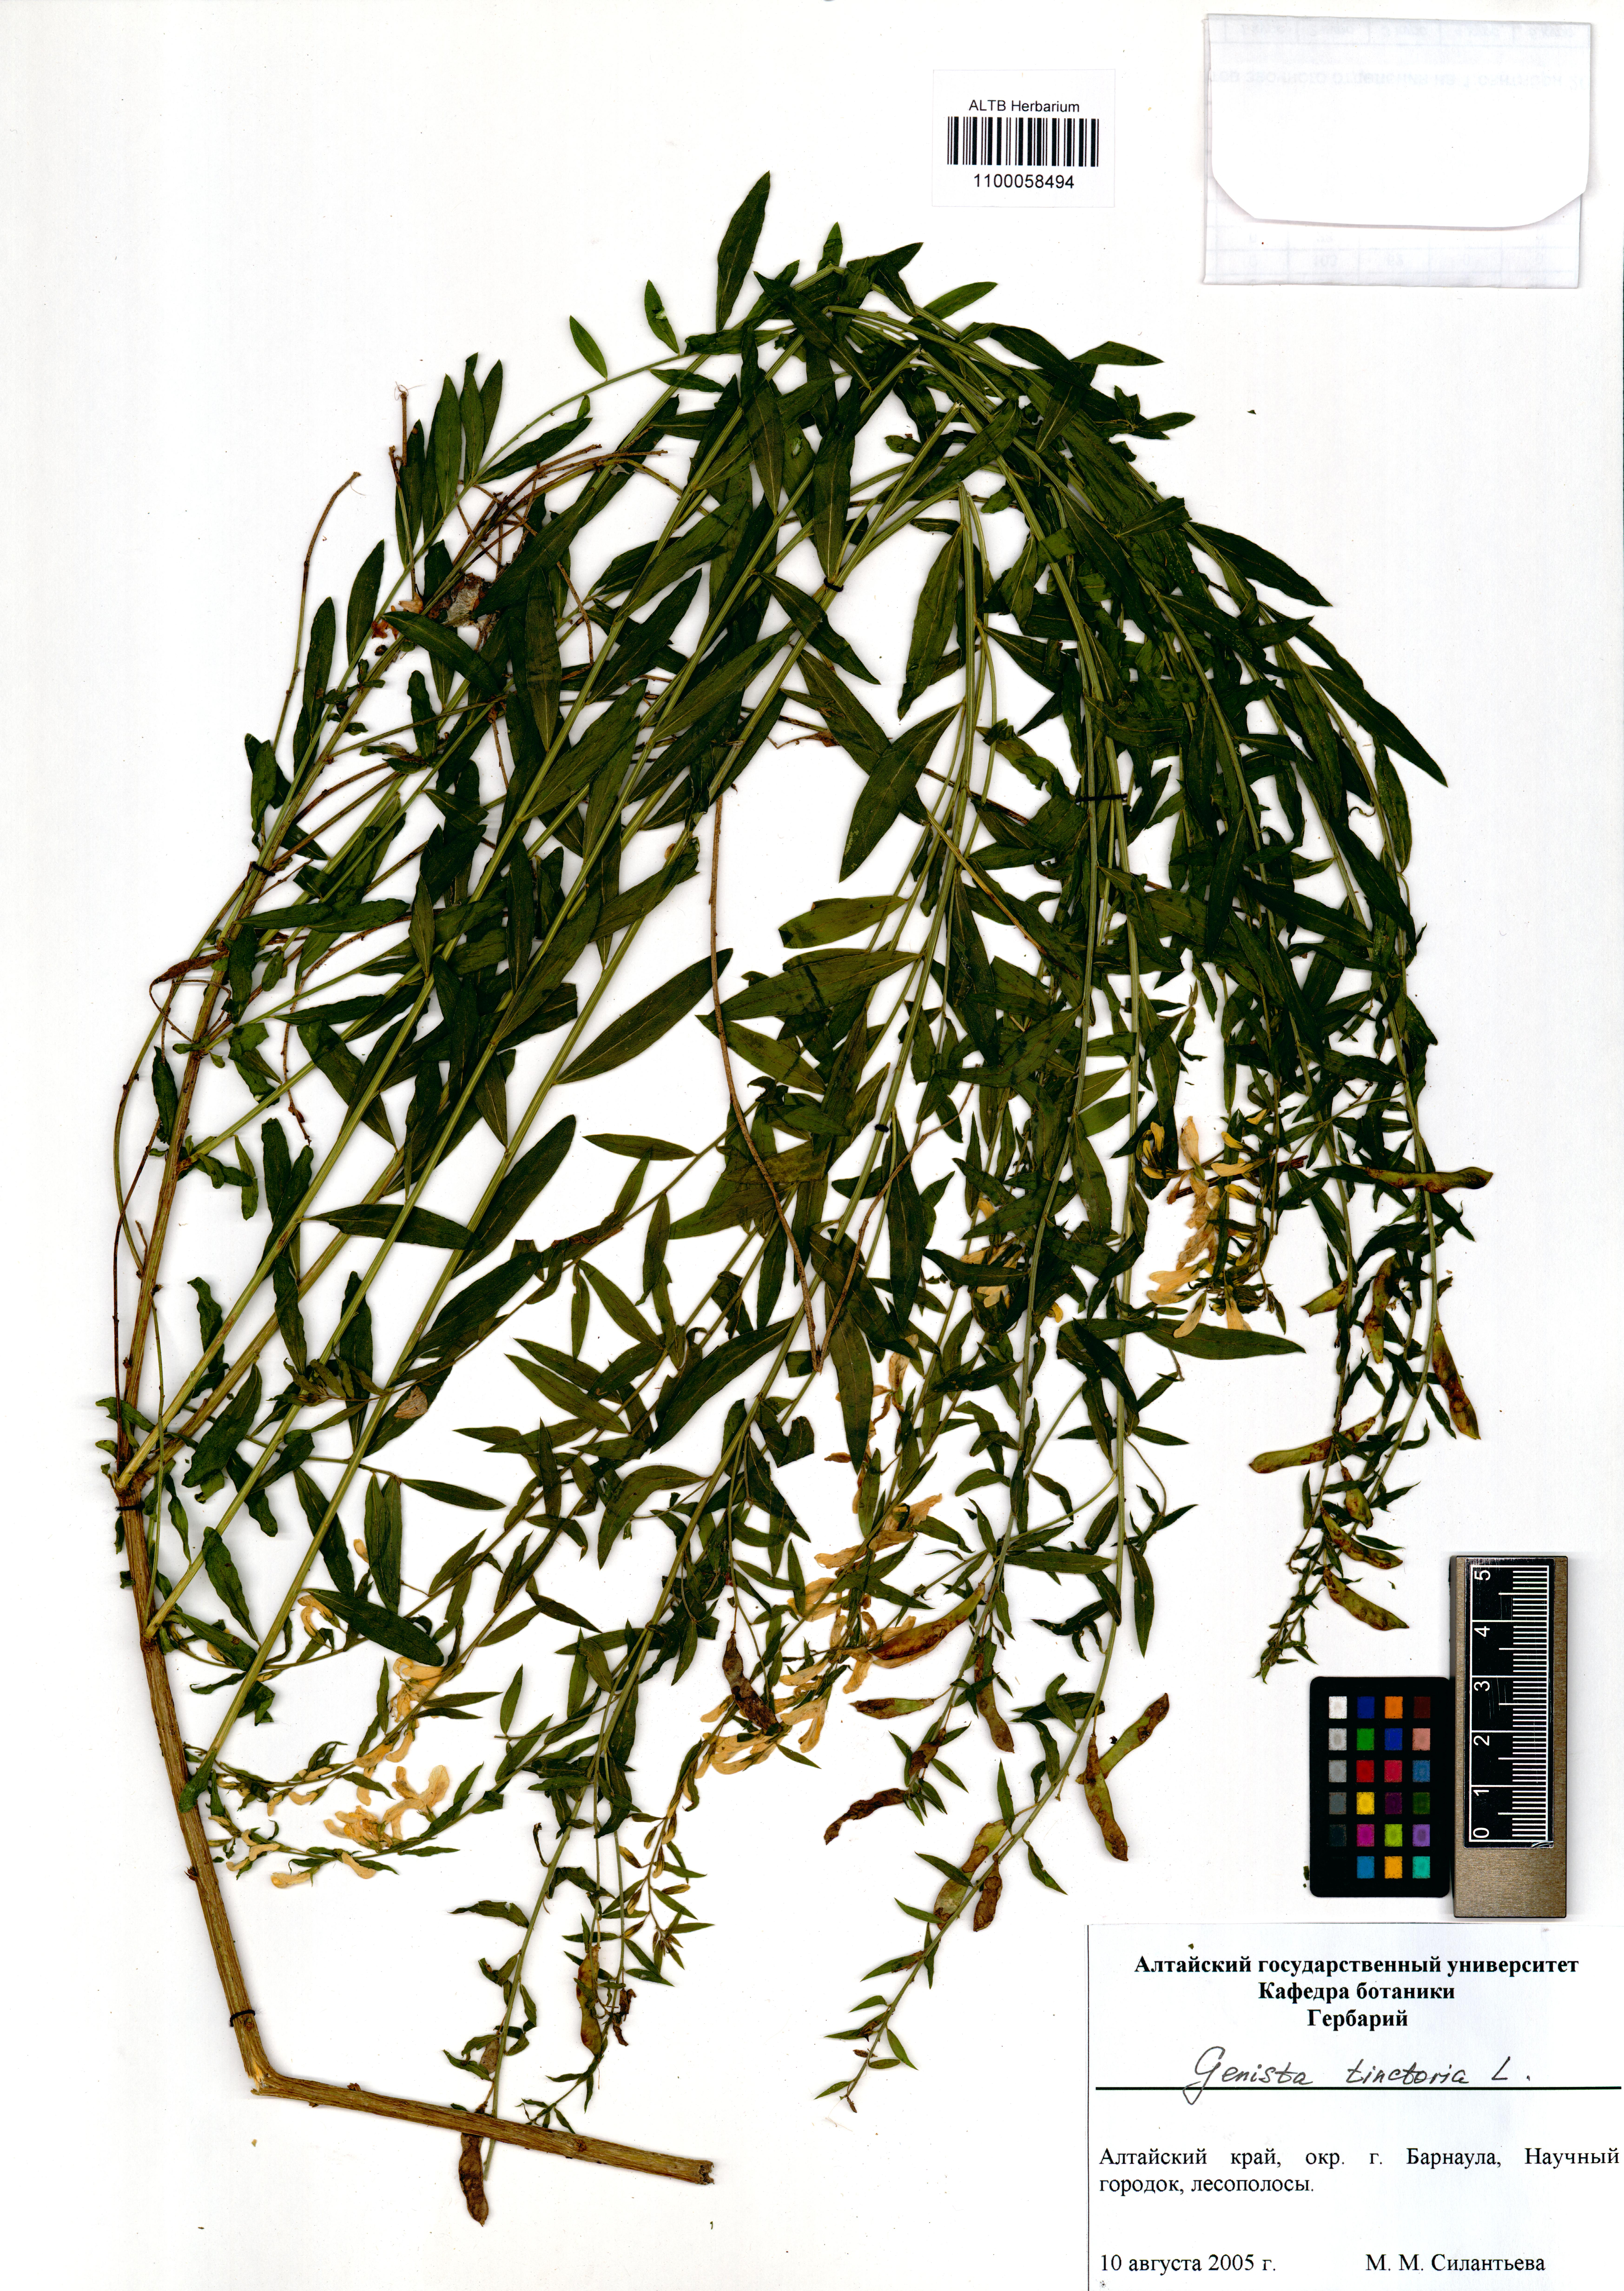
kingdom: Plantae
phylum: Tracheophyta
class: Magnoliopsida
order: Fabales
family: Fabaceae
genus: Genista
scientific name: Genista tinctoria
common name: Dyer's greenweed
